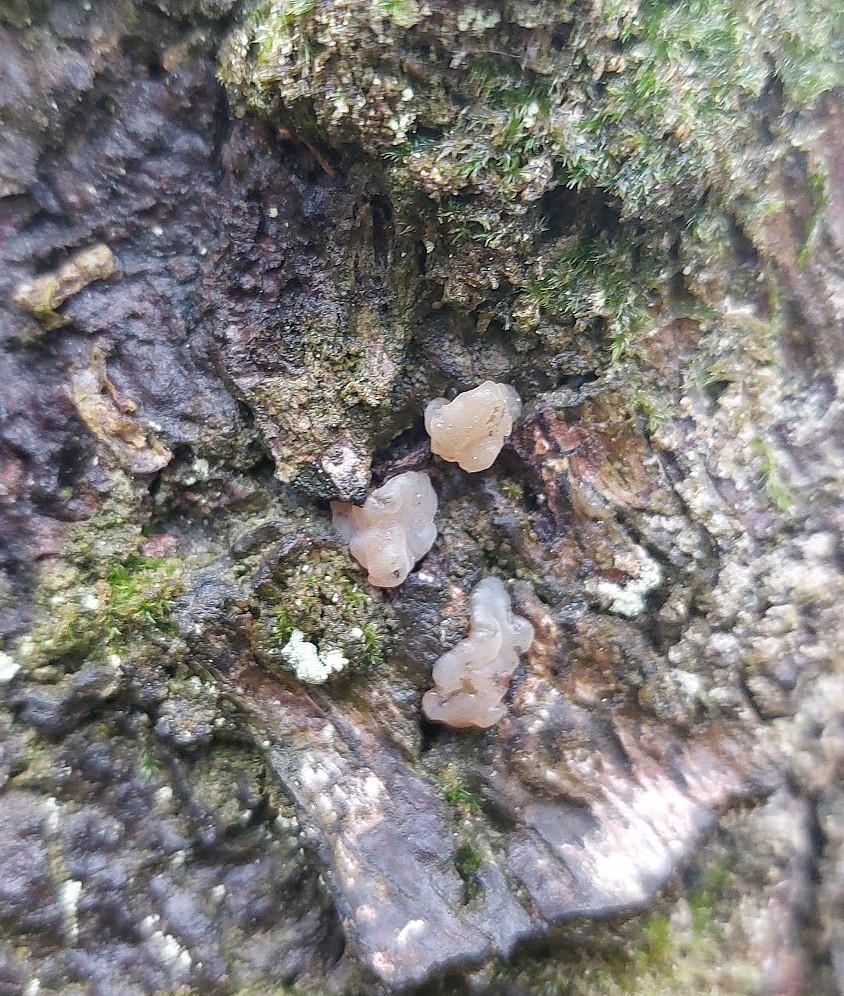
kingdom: Fungi
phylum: Basidiomycota
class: Agaricomycetes
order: Auriculariales
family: Hyaloriaceae
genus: Myxarium
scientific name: Myxarium hyalinum
